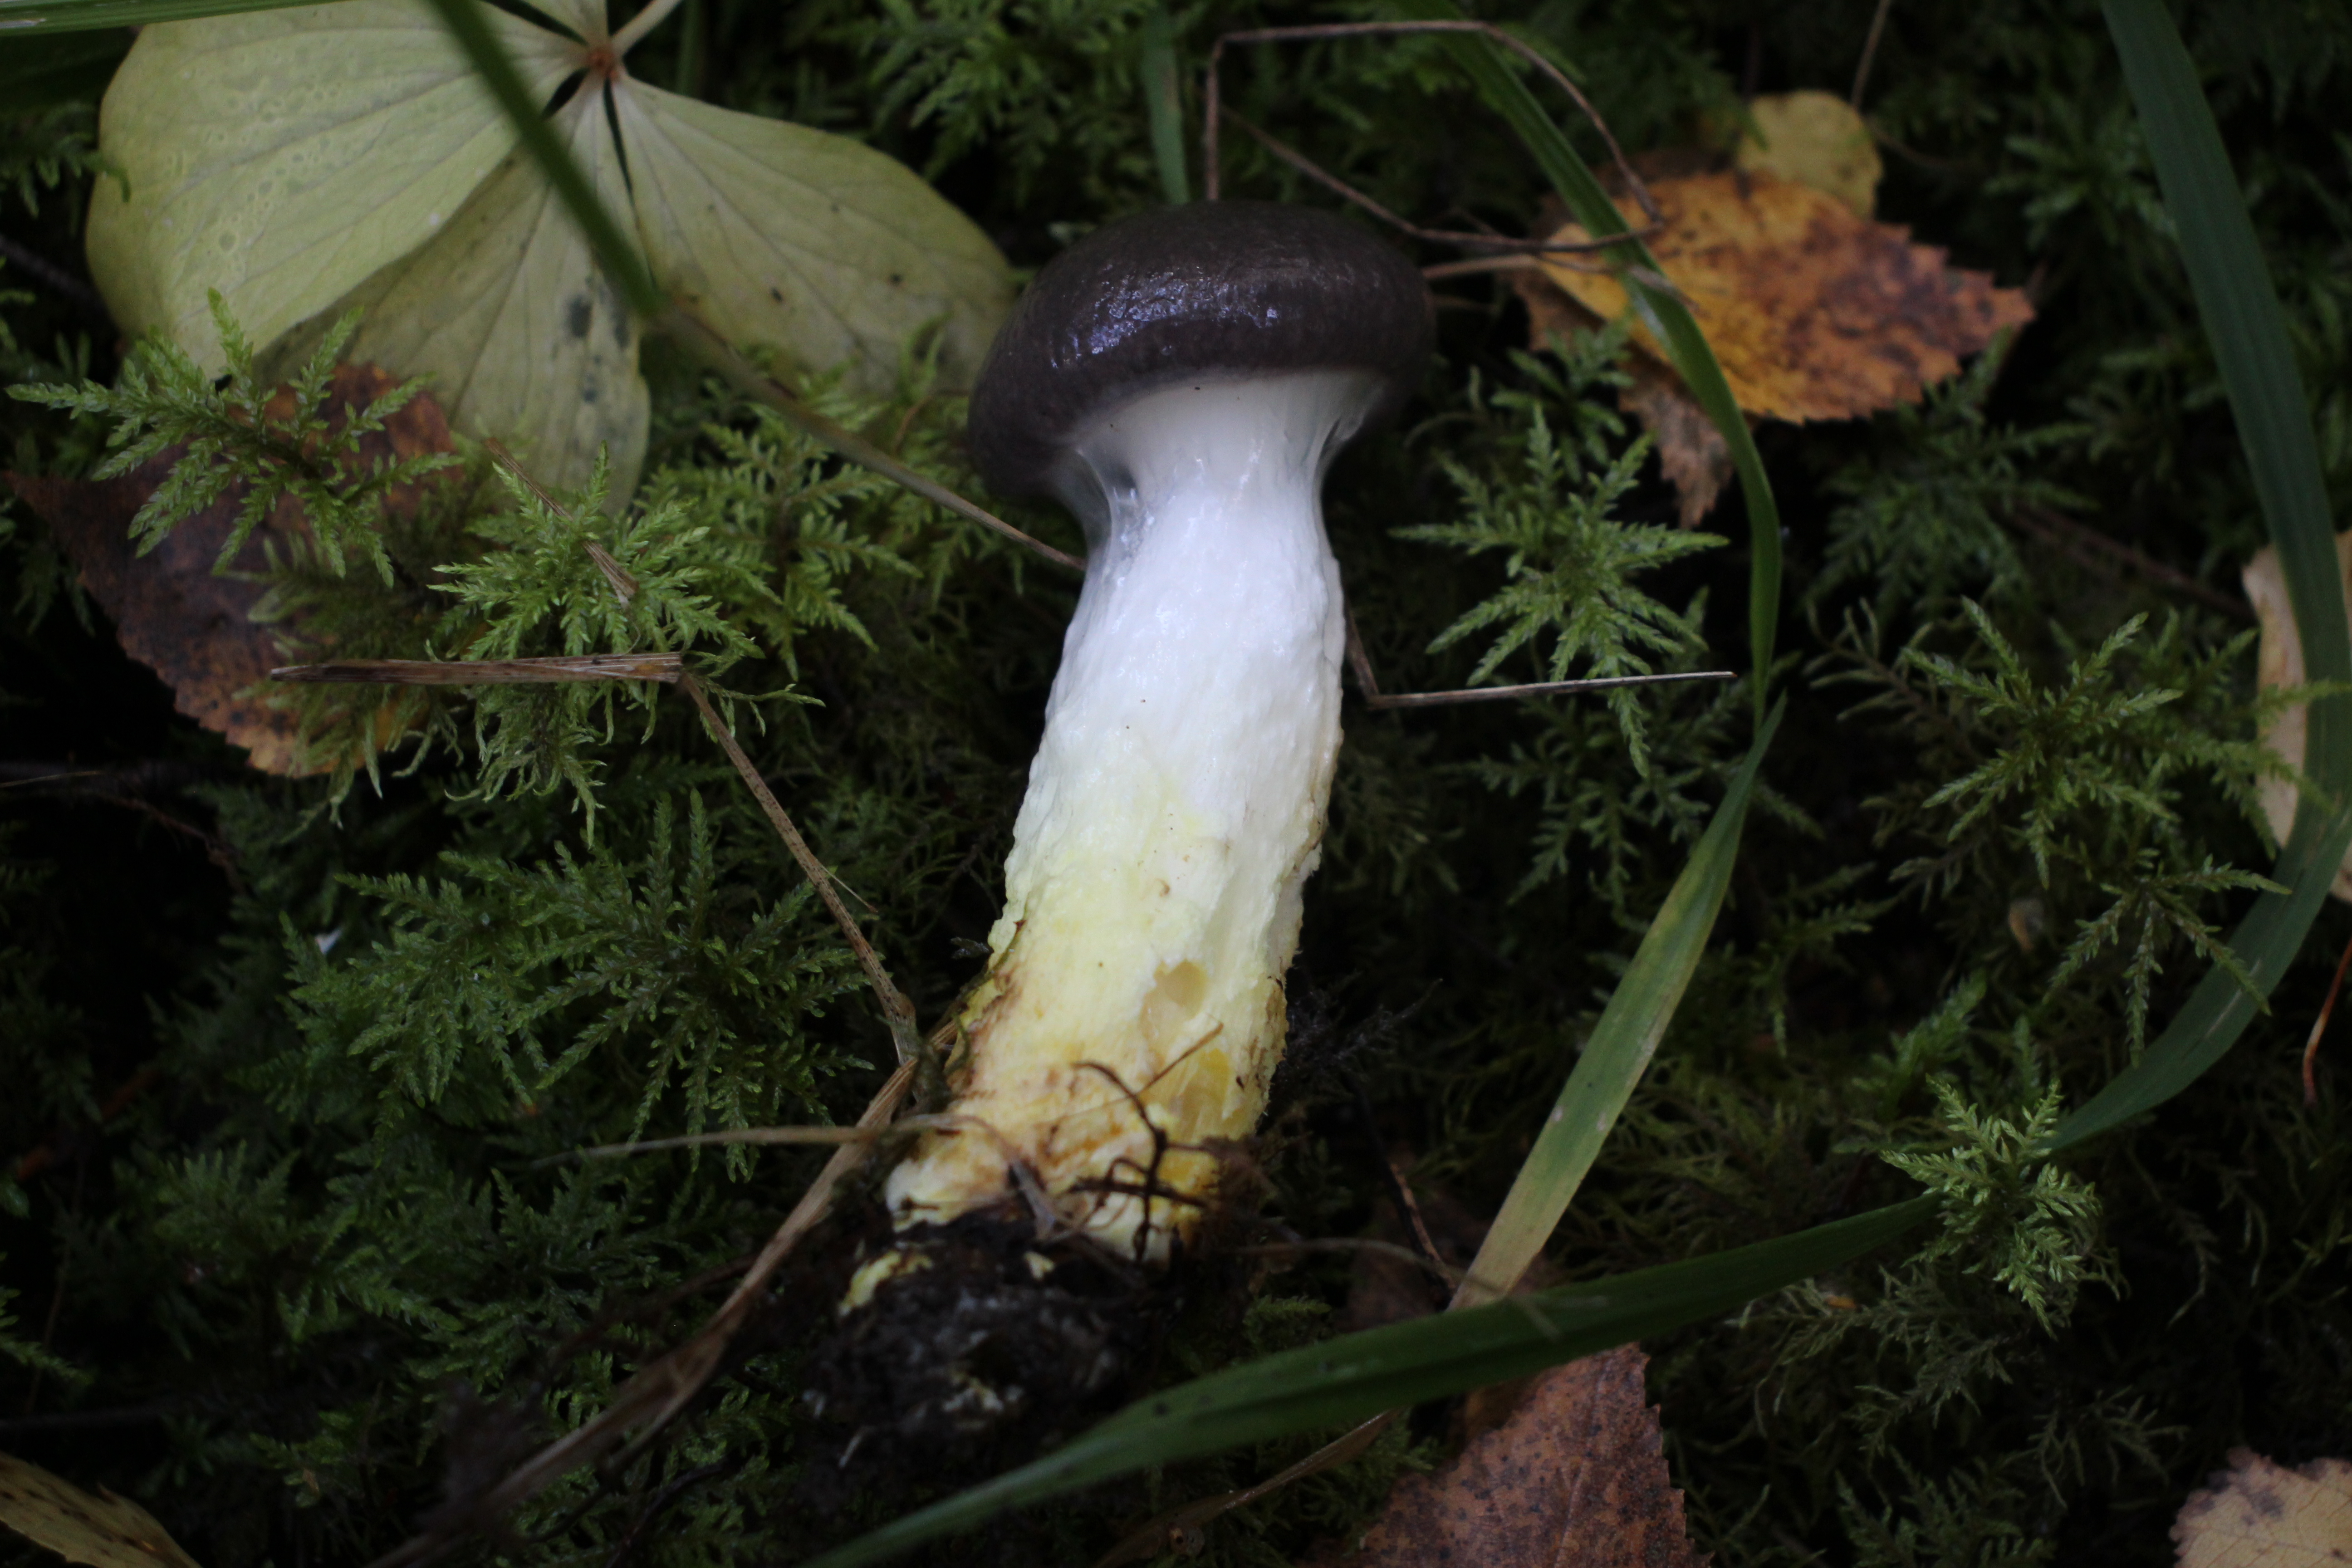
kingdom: Fungi
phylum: Basidiomycota
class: Agaricomycetes
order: Boletales
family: Gomphidiaceae
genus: Gomphidius
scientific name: Gomphidius glutinosus
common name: Slimy spike
